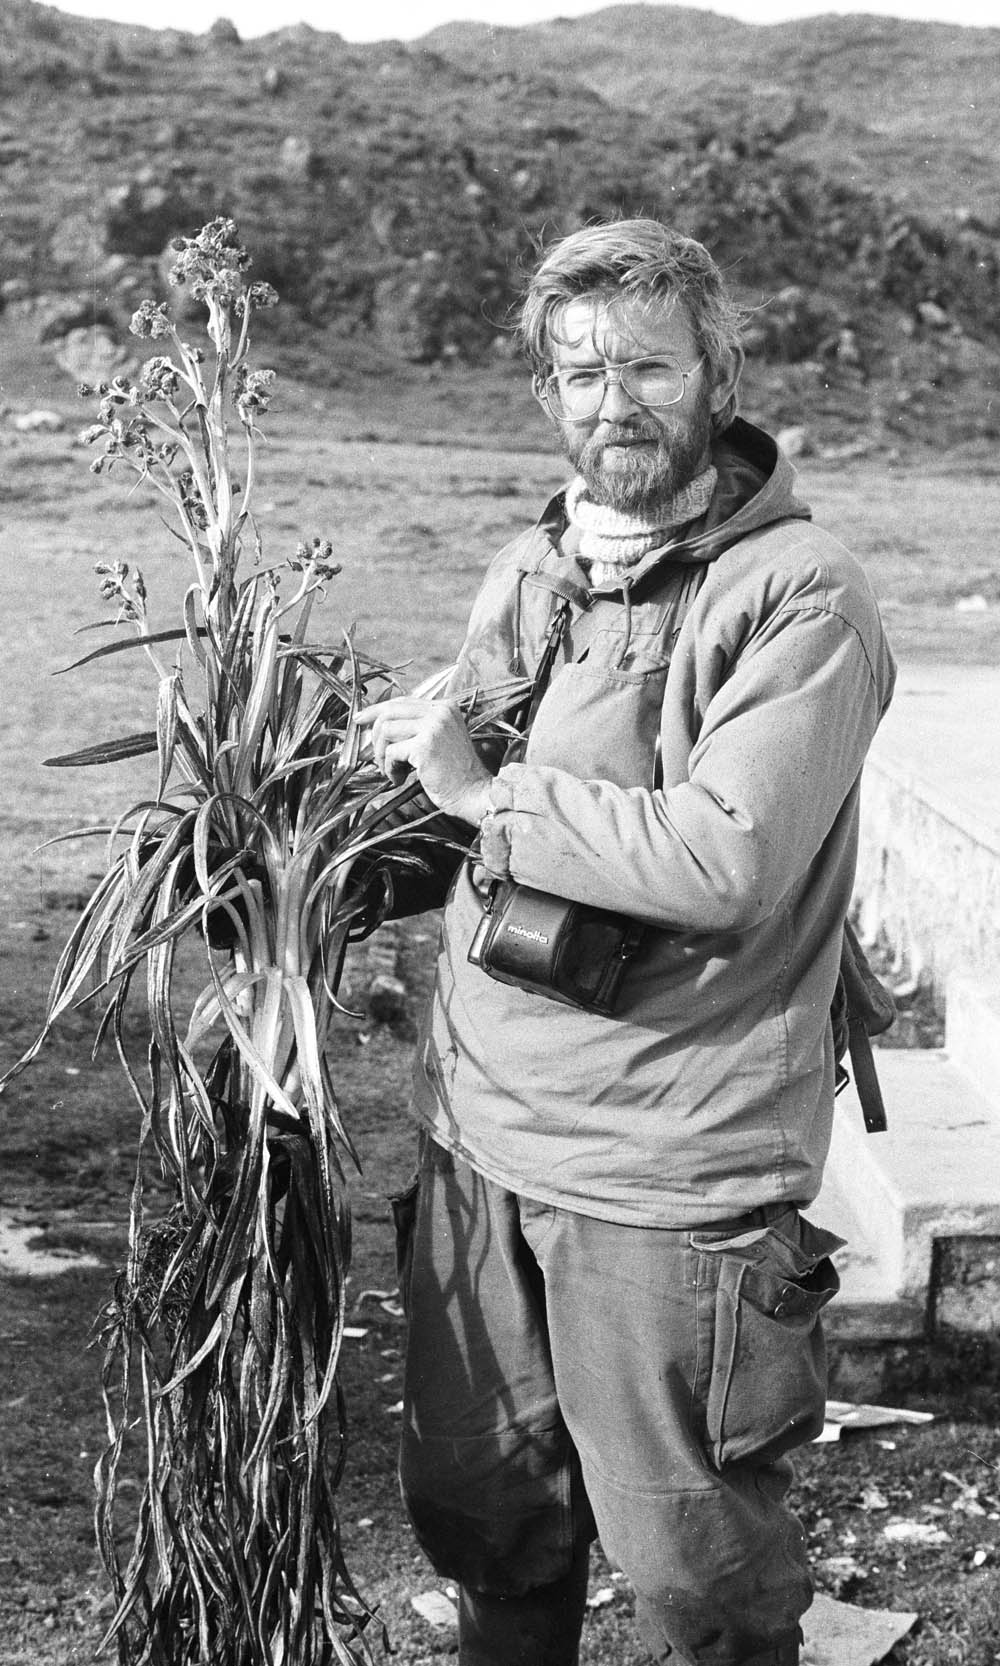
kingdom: Plantae
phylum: Tracheophyta
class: Magnoliopsida
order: Asterales
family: Asteraceae
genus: Senecio
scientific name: Senecio comosus
